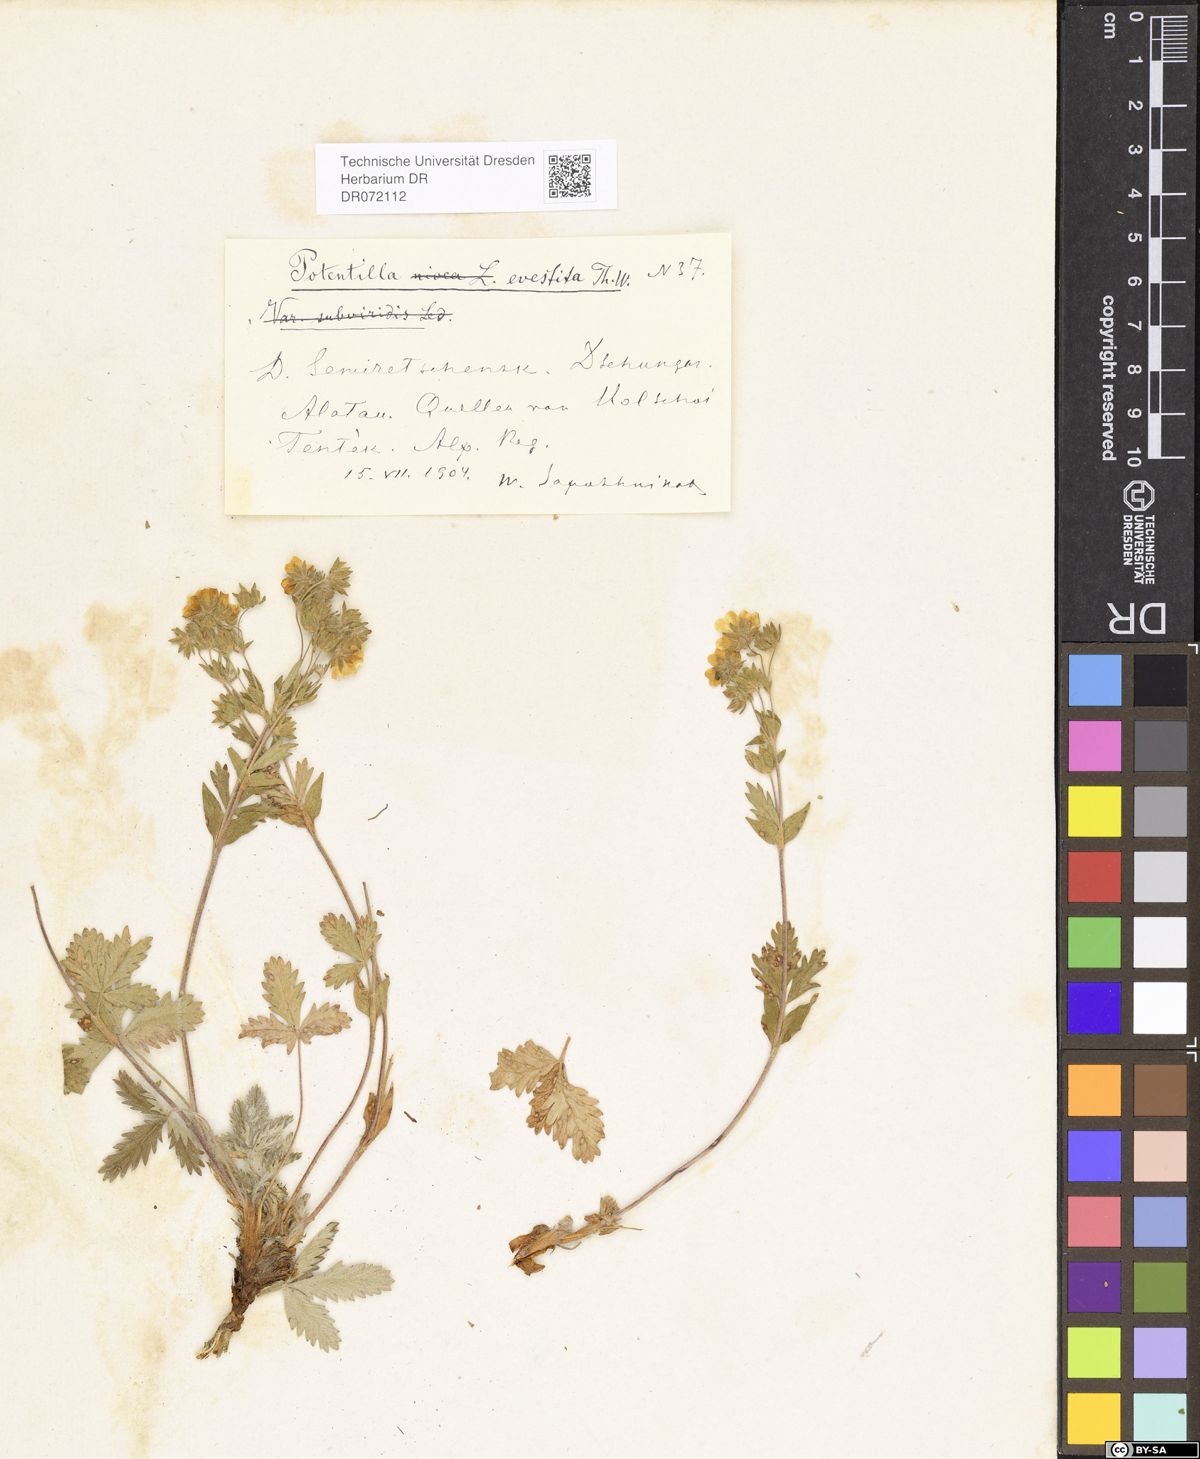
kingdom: Plantae
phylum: Tracheophyta
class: Magnoliopsida
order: Rosales
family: Rosaceae
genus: Potentilla
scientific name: Potentilla evestita
